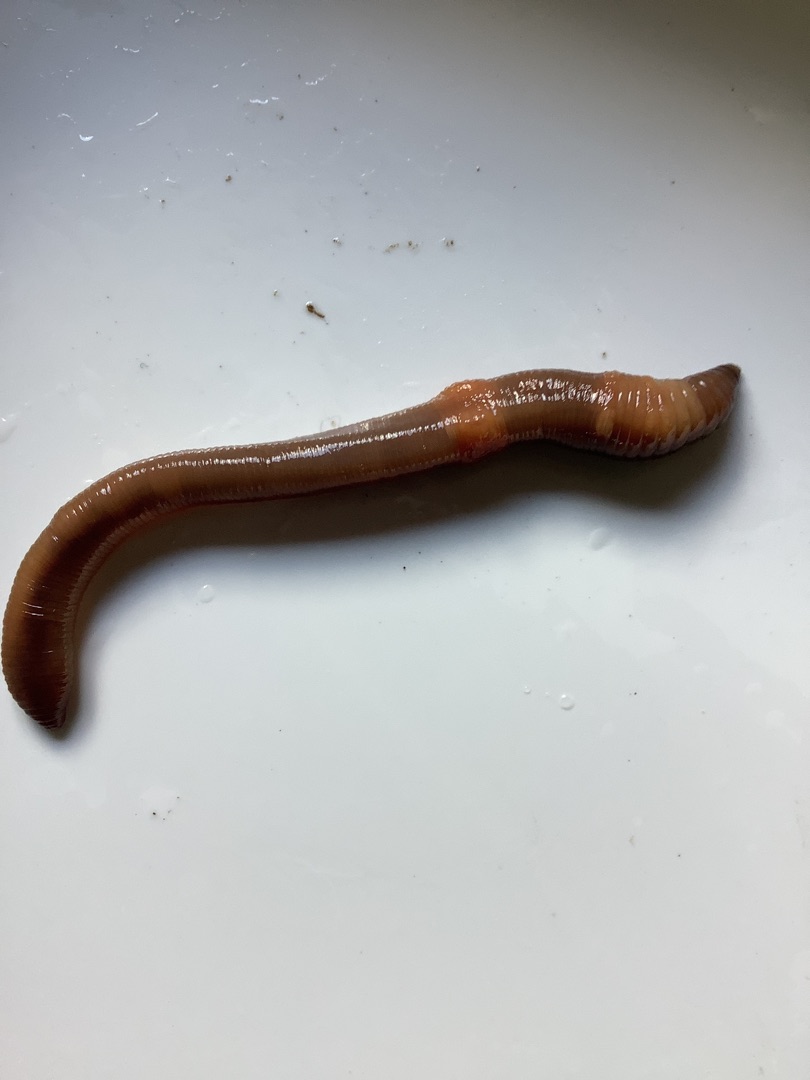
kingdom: Animalia
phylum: Annelida
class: Clitellata
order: Crassiclitellata
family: Lumbricidae
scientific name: Lumbricidae
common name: Regnorme
